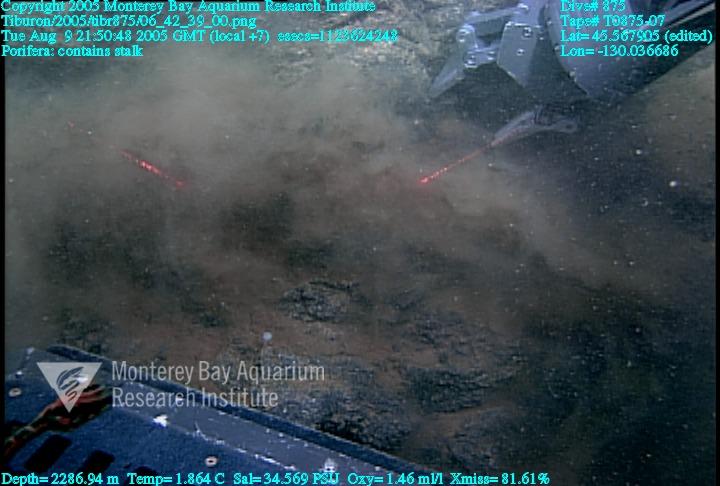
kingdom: Animalia
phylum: Porifera
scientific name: Porifera
